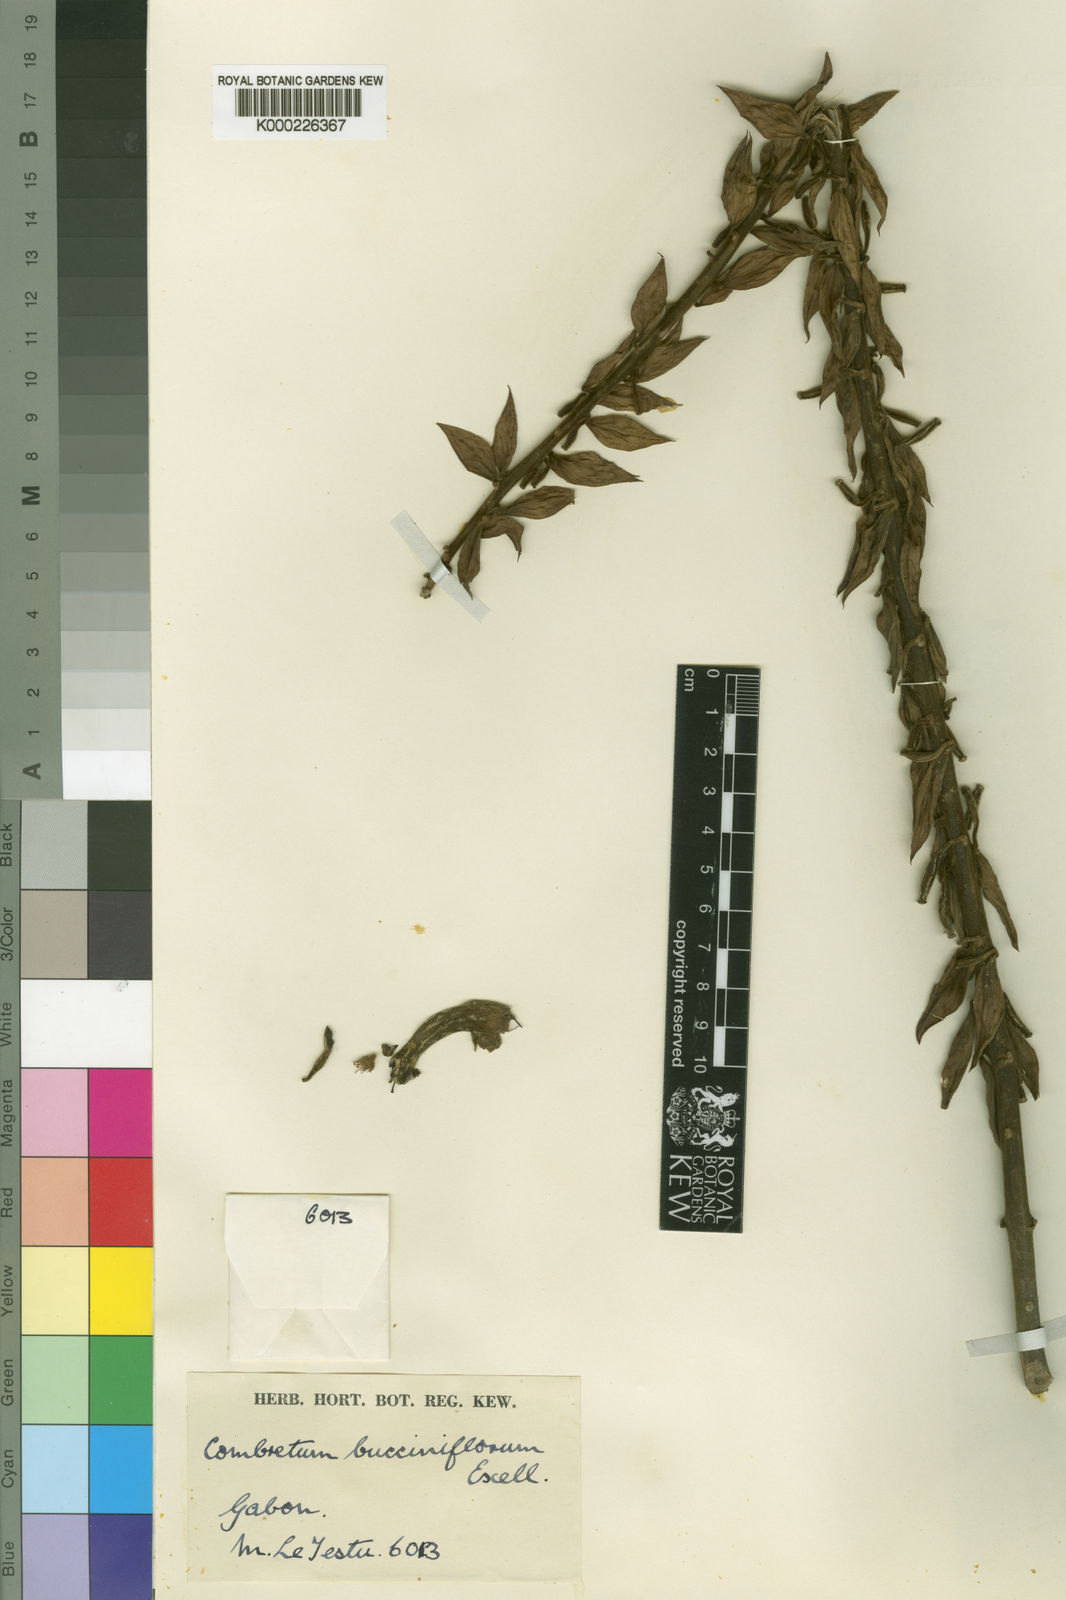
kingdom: Plantae
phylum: Tracheophyta
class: Magnoliopsida
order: Myrtales
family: Combretaceae
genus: Combretum
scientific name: Combretum bracteatum
